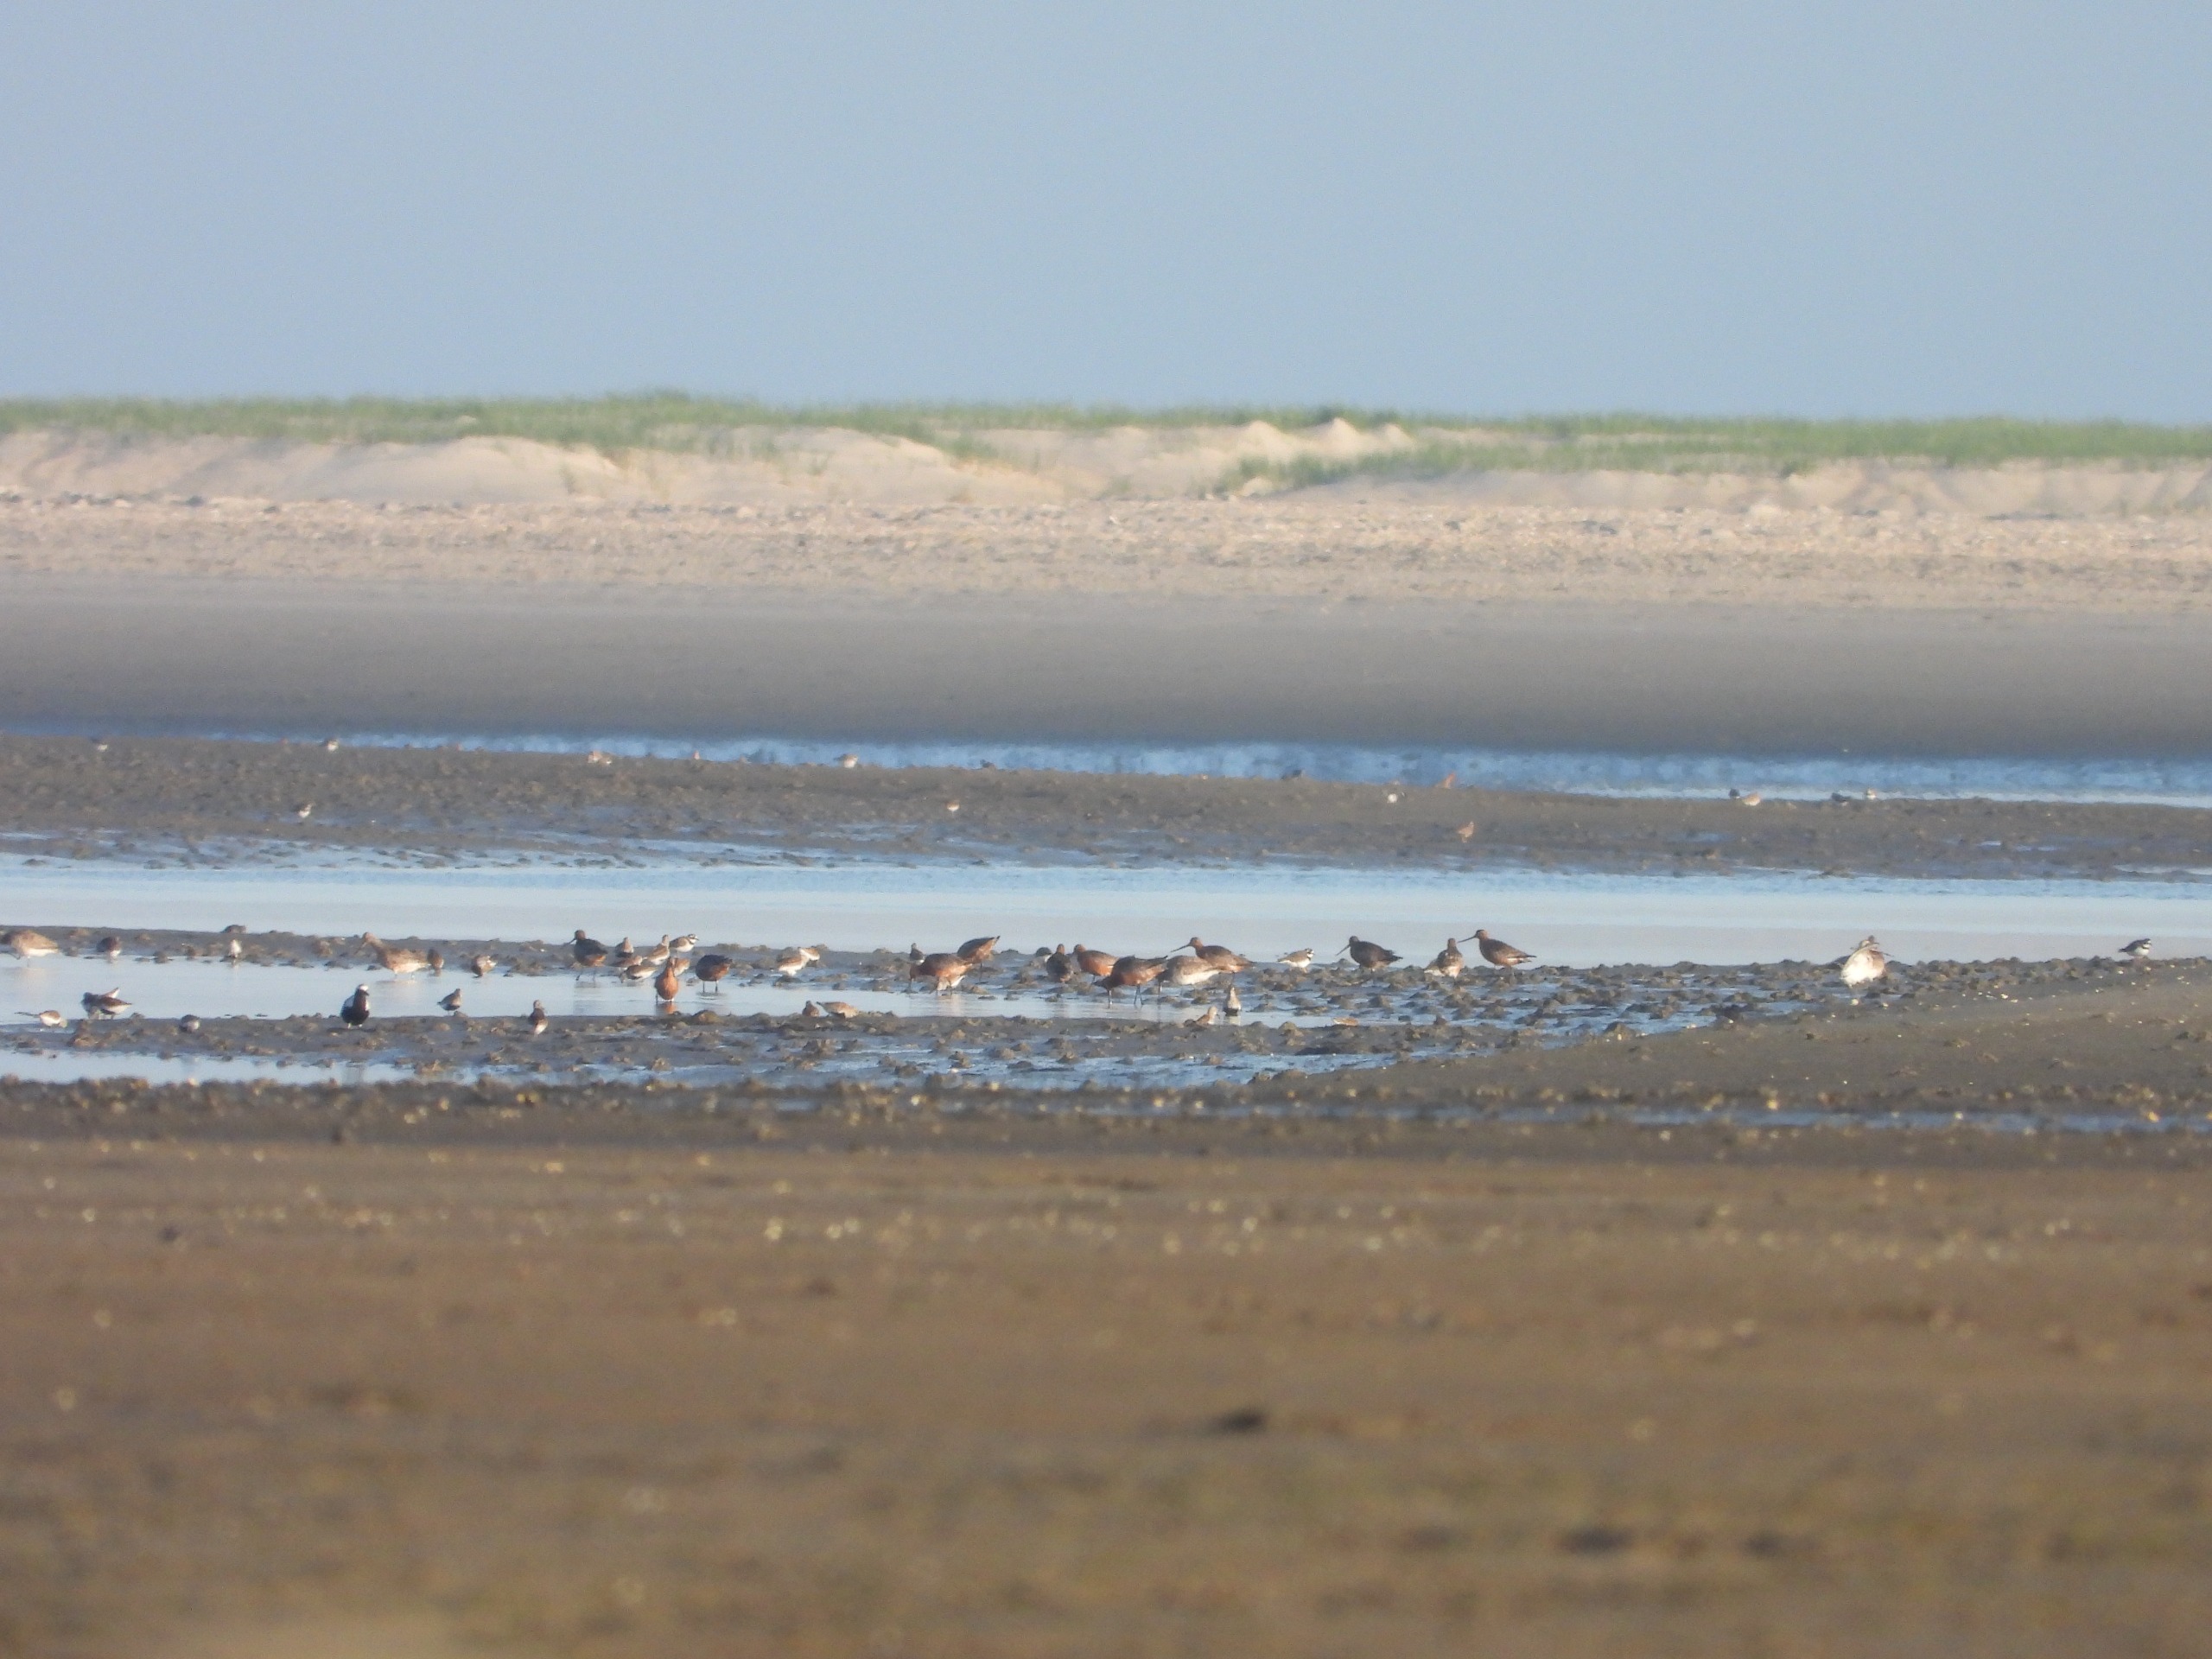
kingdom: Animalia
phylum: Chordata
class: Aves
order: Charadriiformes
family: Scolopacidae
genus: Limosa
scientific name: Limosa lapponica
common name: Lille kobbersneppe
